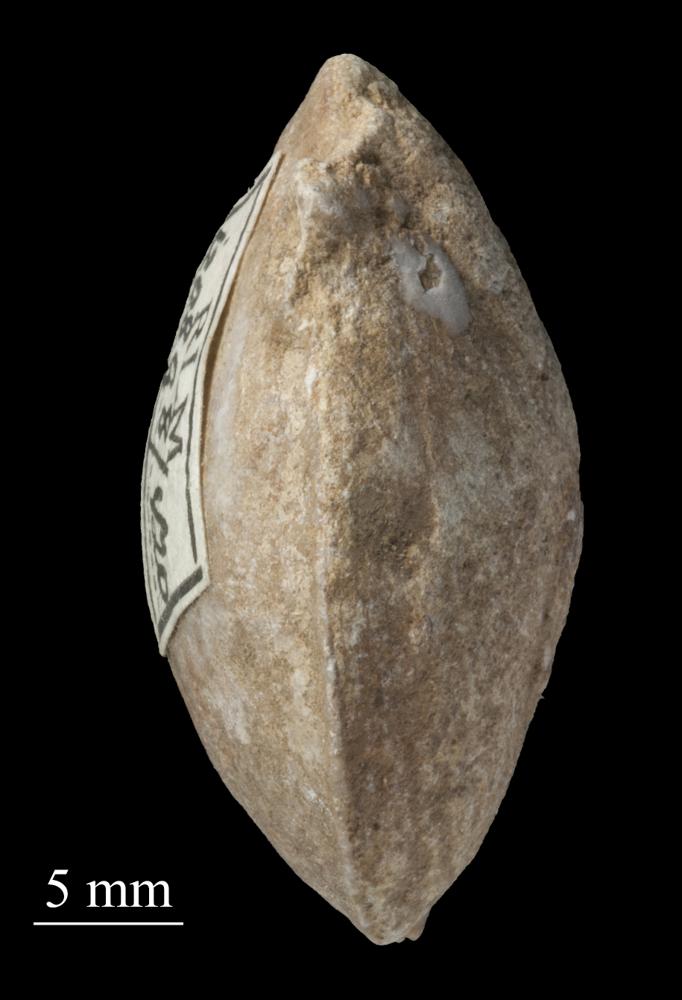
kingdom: Animalia
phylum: Mollusca
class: Gastropoda
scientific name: Gastropoda
